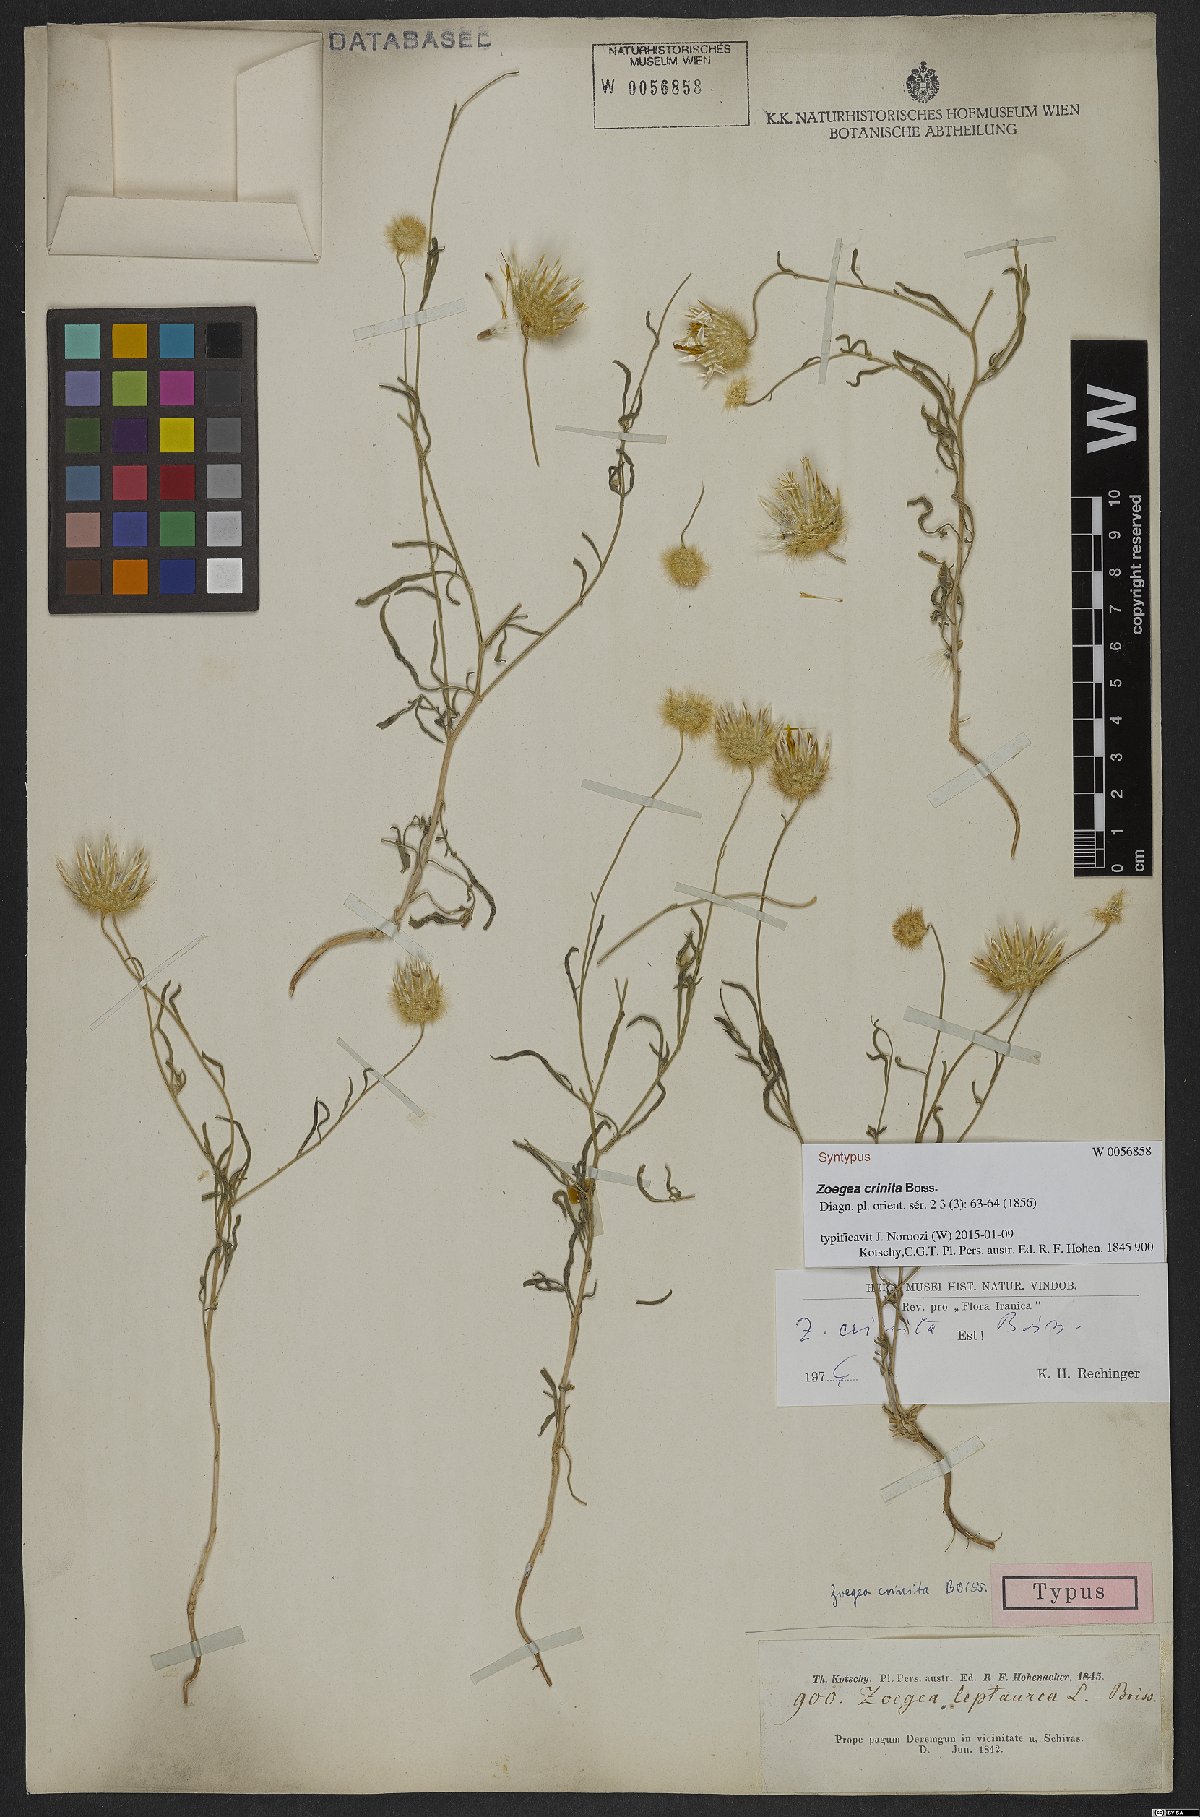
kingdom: Plantae
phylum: Tracheophyta
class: Magnoliopsida
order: Asterales
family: Asteraceae
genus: Zoegea
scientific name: Zoegea crinita
